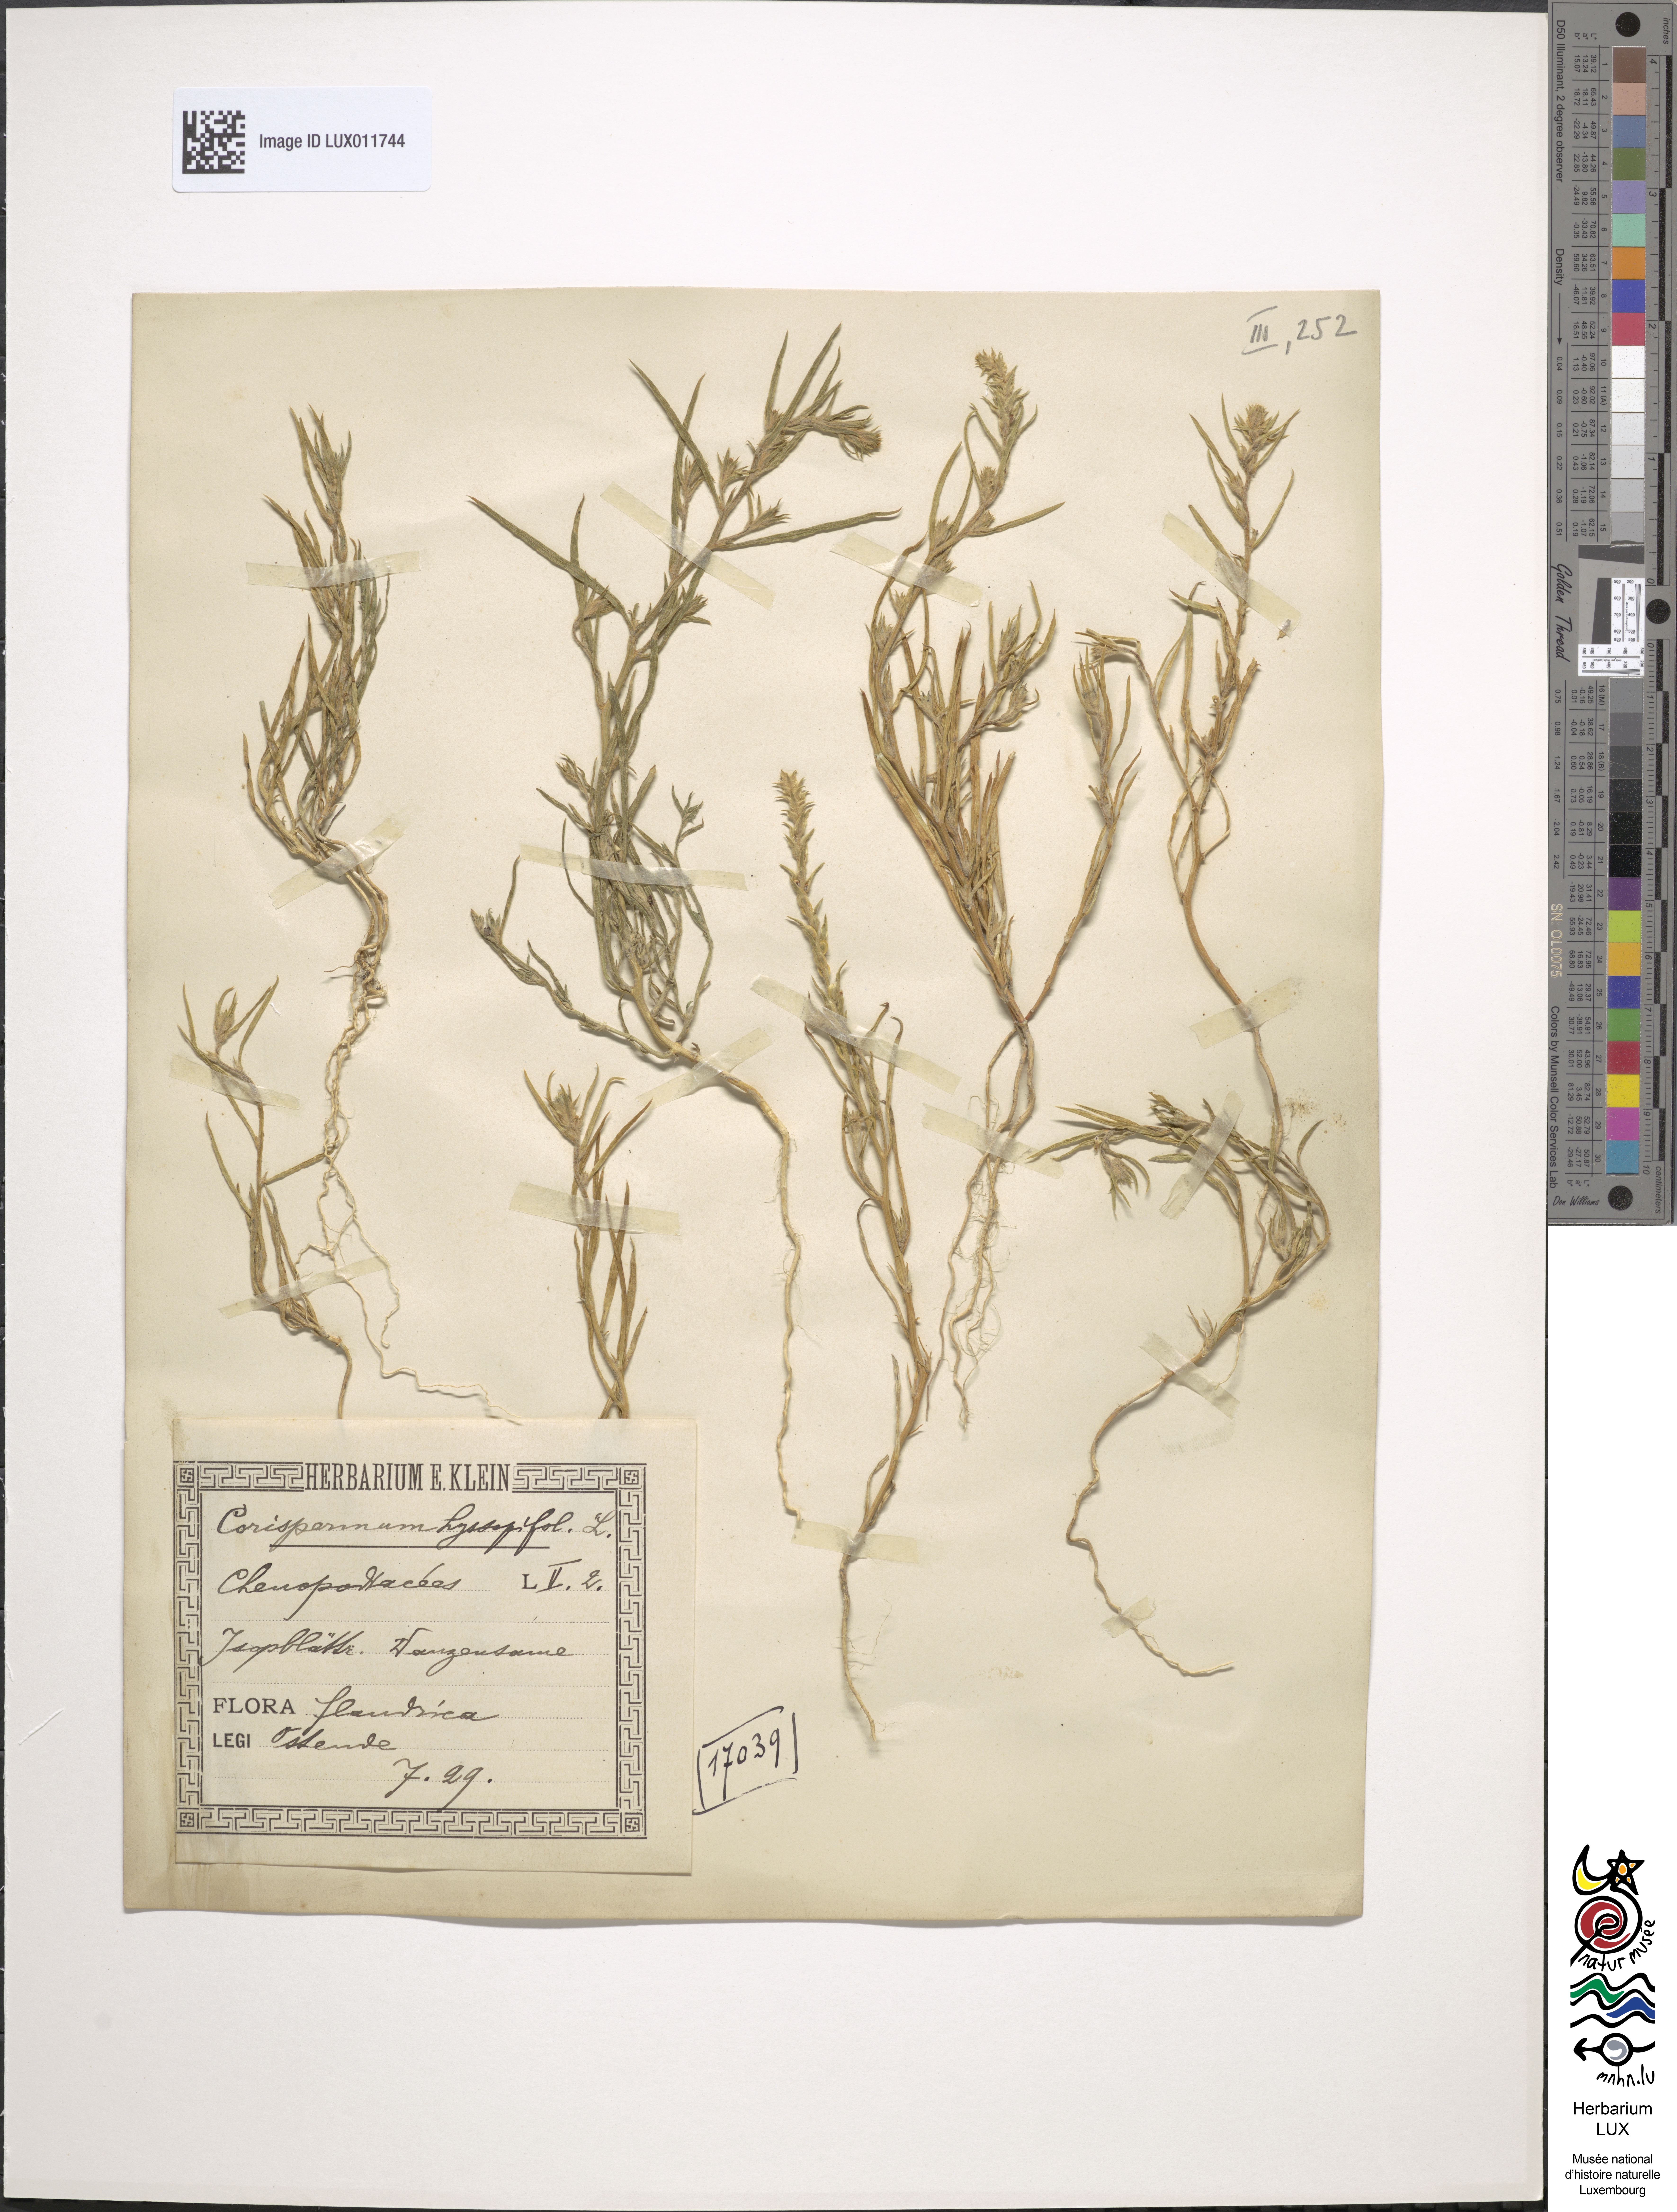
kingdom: Plantae
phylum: Tracheophyta
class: Magnoliopsida
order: Caryophyllales
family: Amaranthaceae
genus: Corispermum
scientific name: Corispermum hyssopifolium
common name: Bugseed
